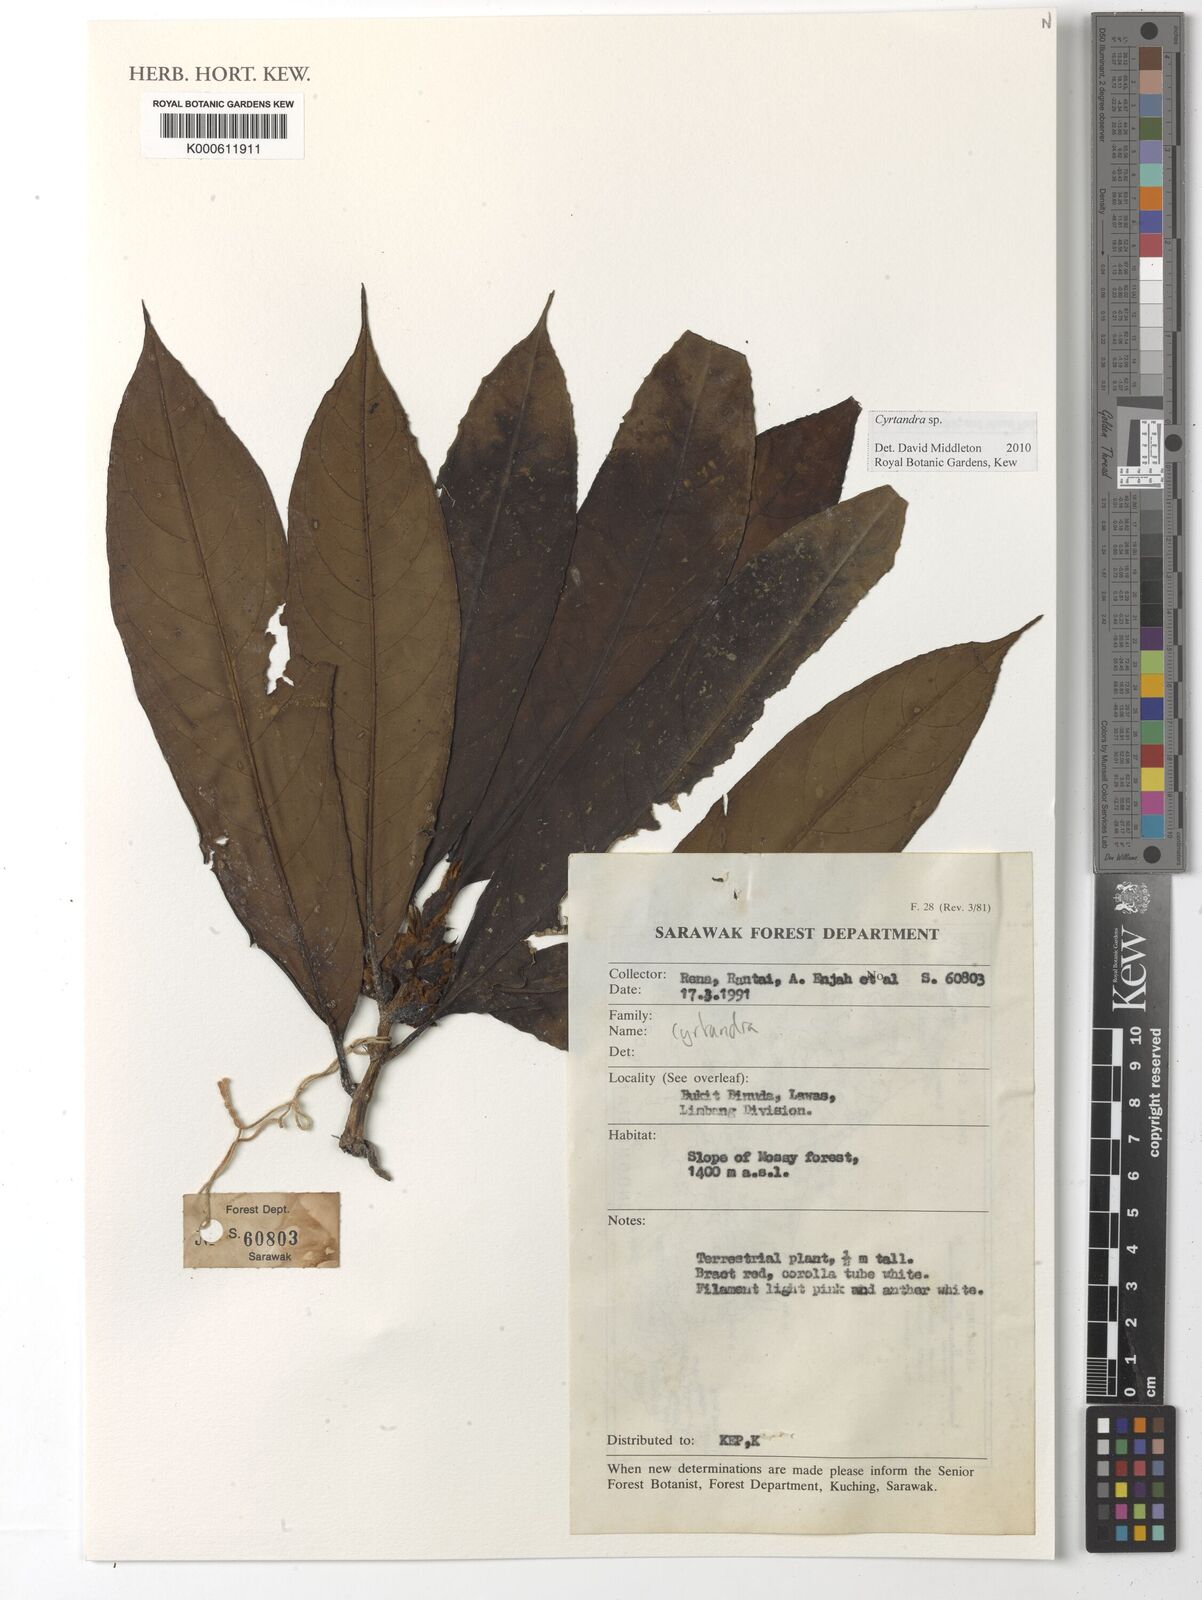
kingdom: Plantae
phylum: Tracheophyta
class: Magnoliopsida
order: Lamiales
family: Gesneriaceae
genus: Cyrtandra
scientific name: Cyrtandra
